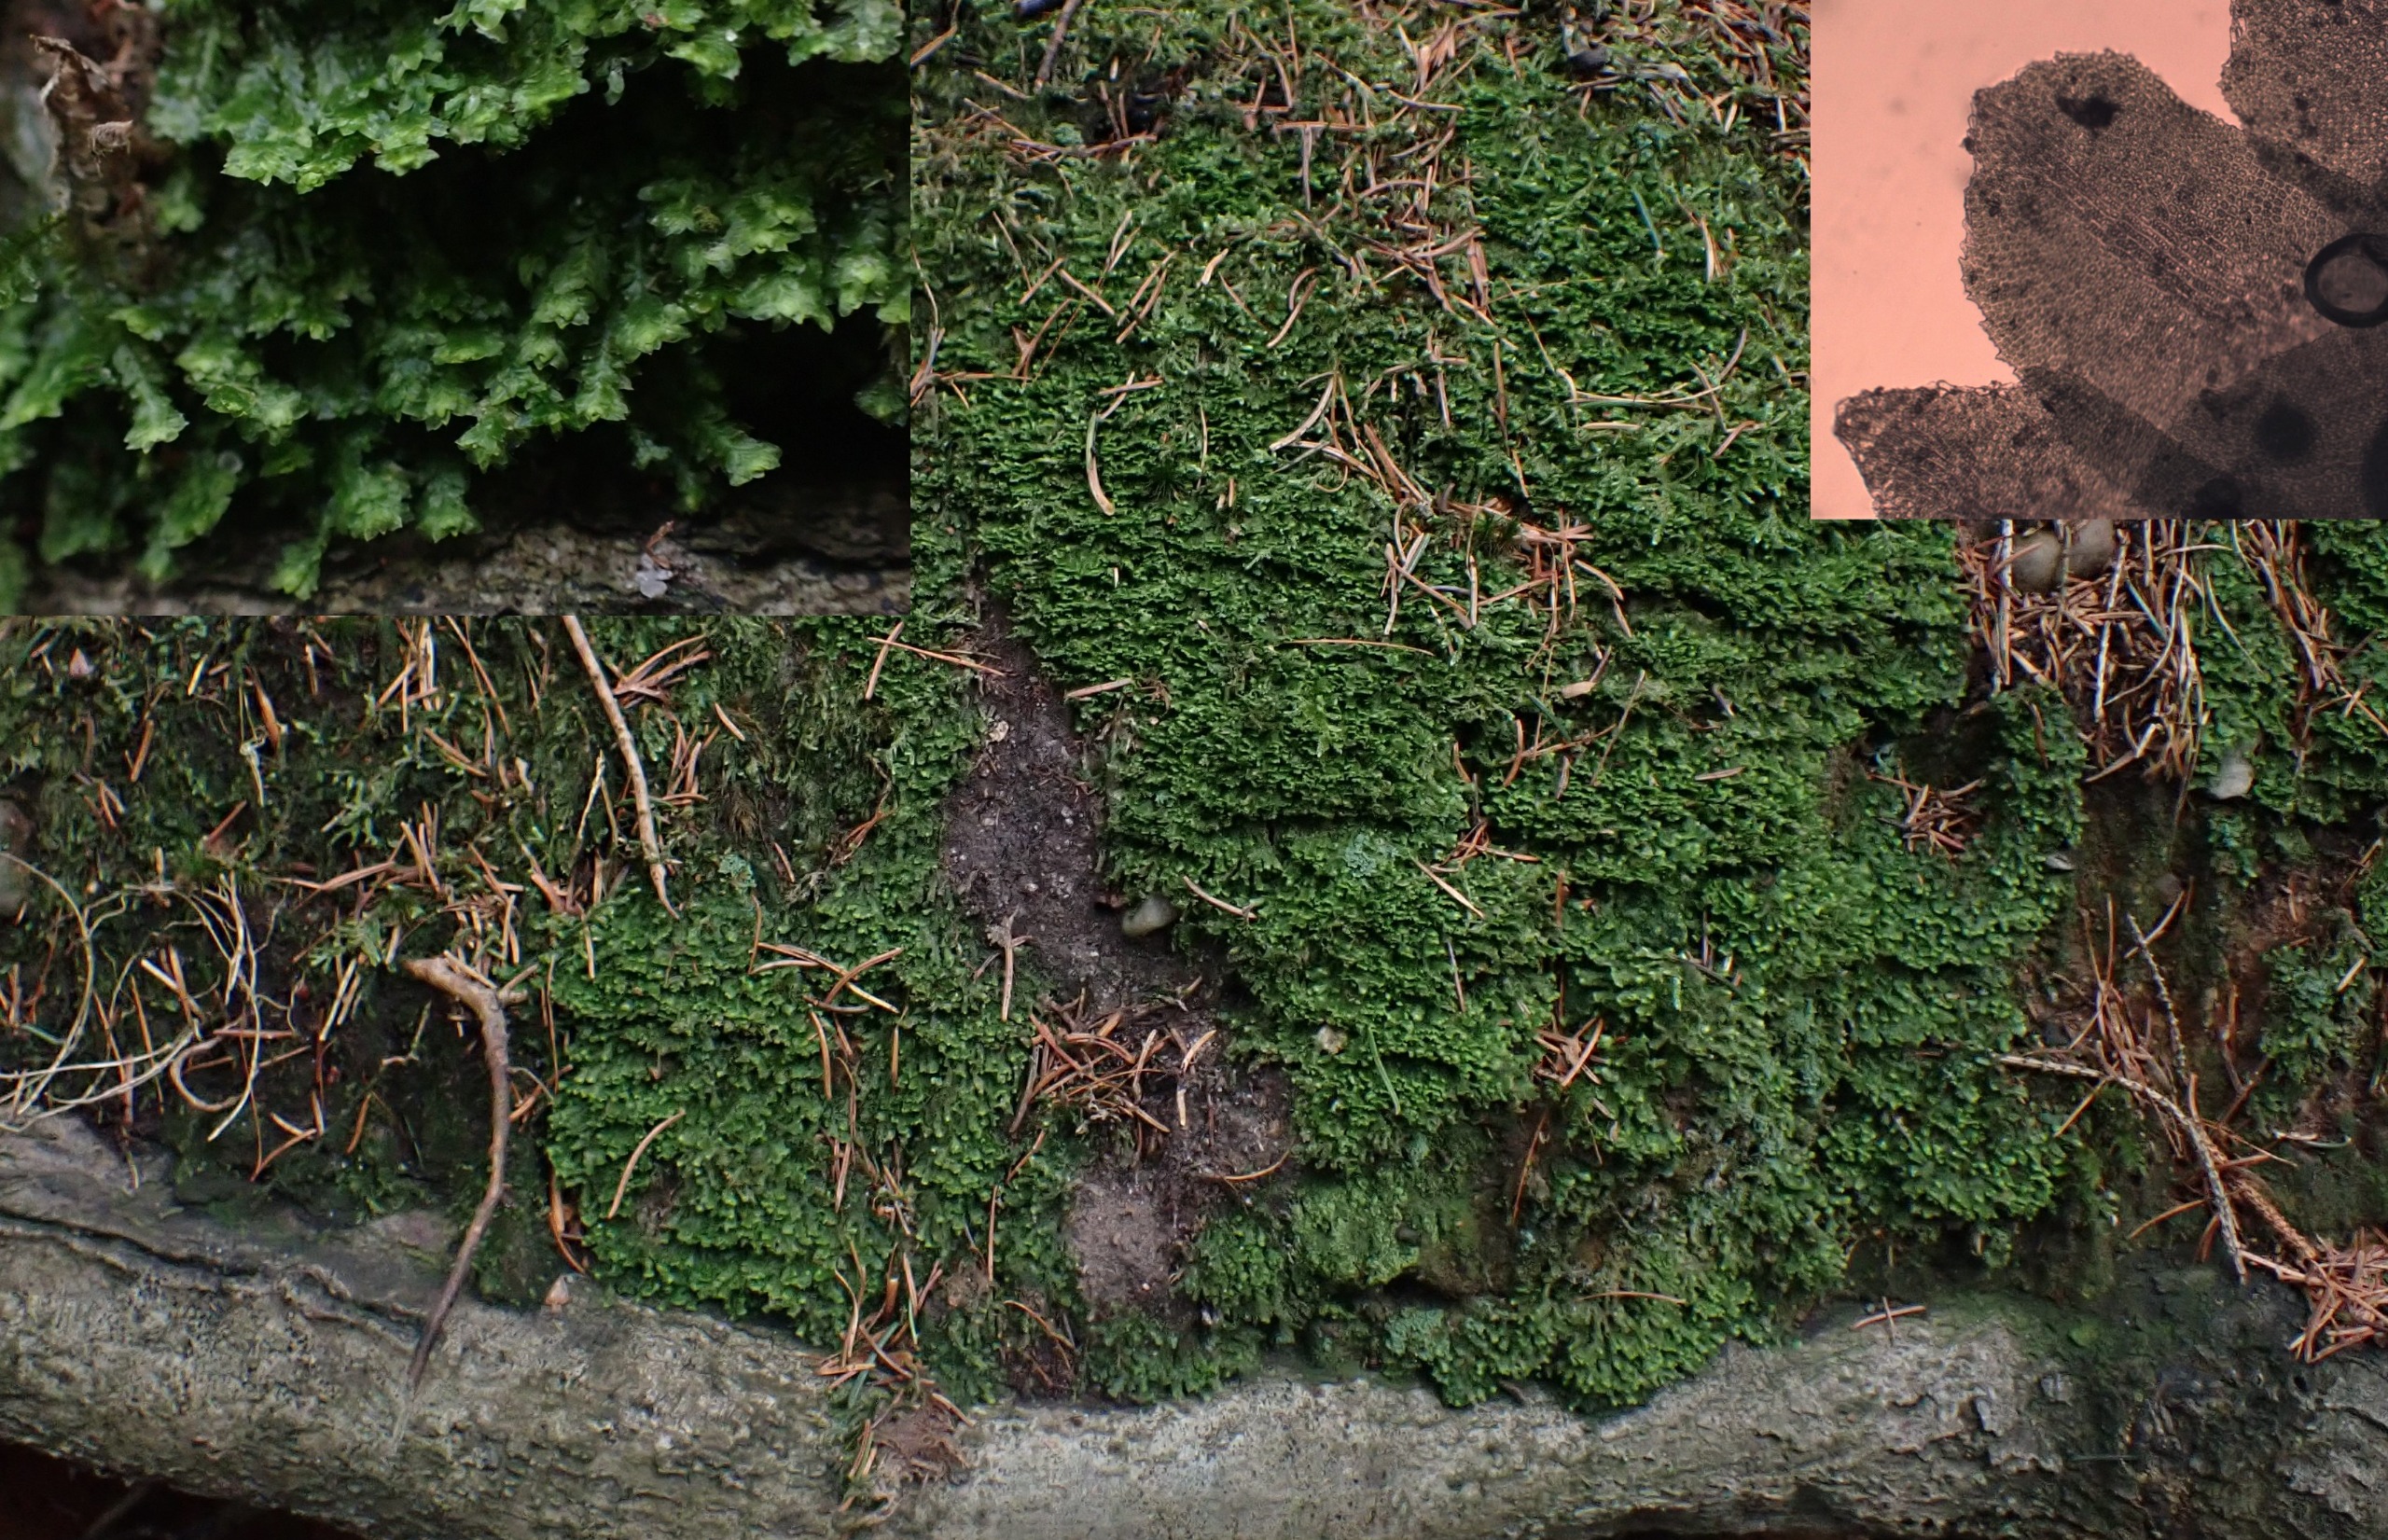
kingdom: Plantae
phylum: Marchantiophyta
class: Jungermanniopsida
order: Jungermanniales
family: Scapaniaceae
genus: Diplophyllum
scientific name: Diplophyllum albicans
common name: Stribet dobbeltblad
